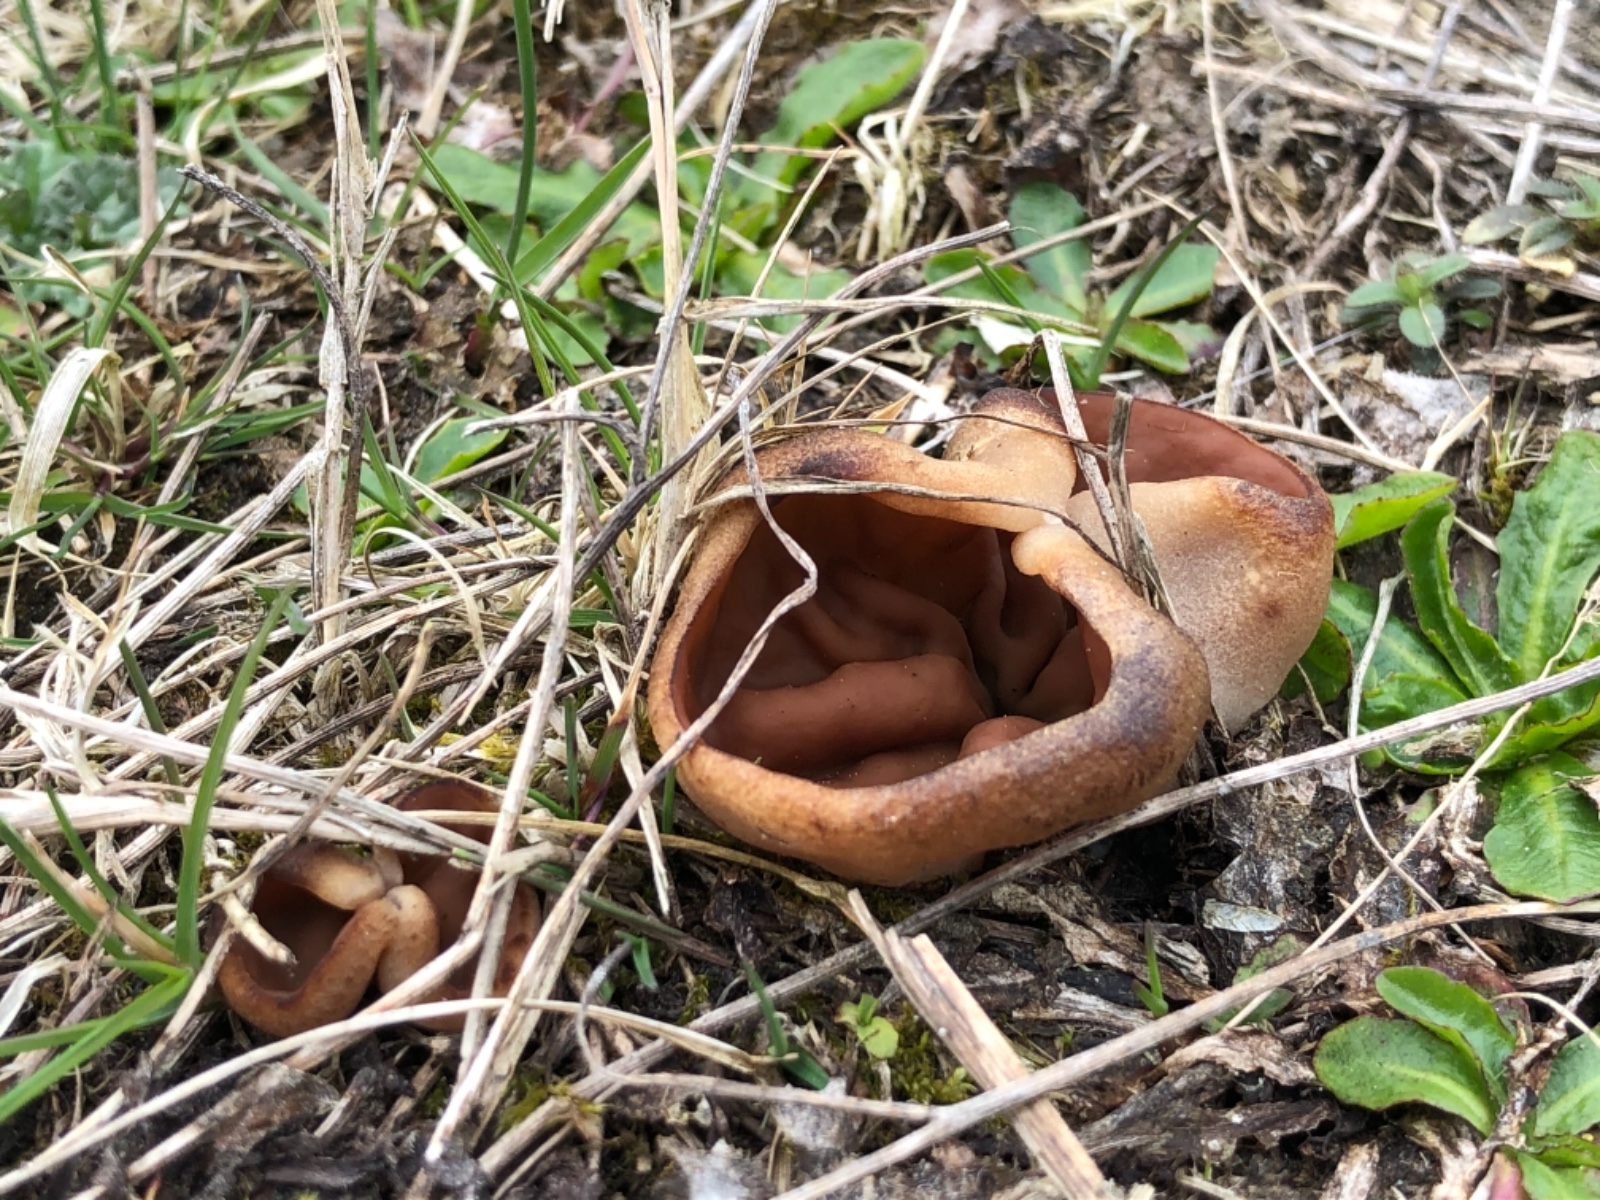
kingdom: Fungi
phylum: Ascomycota
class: Pezizomycetes
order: Pezizales
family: Discinaceae
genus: Discina
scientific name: Discina ancilis
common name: udbredt stenmorkel
